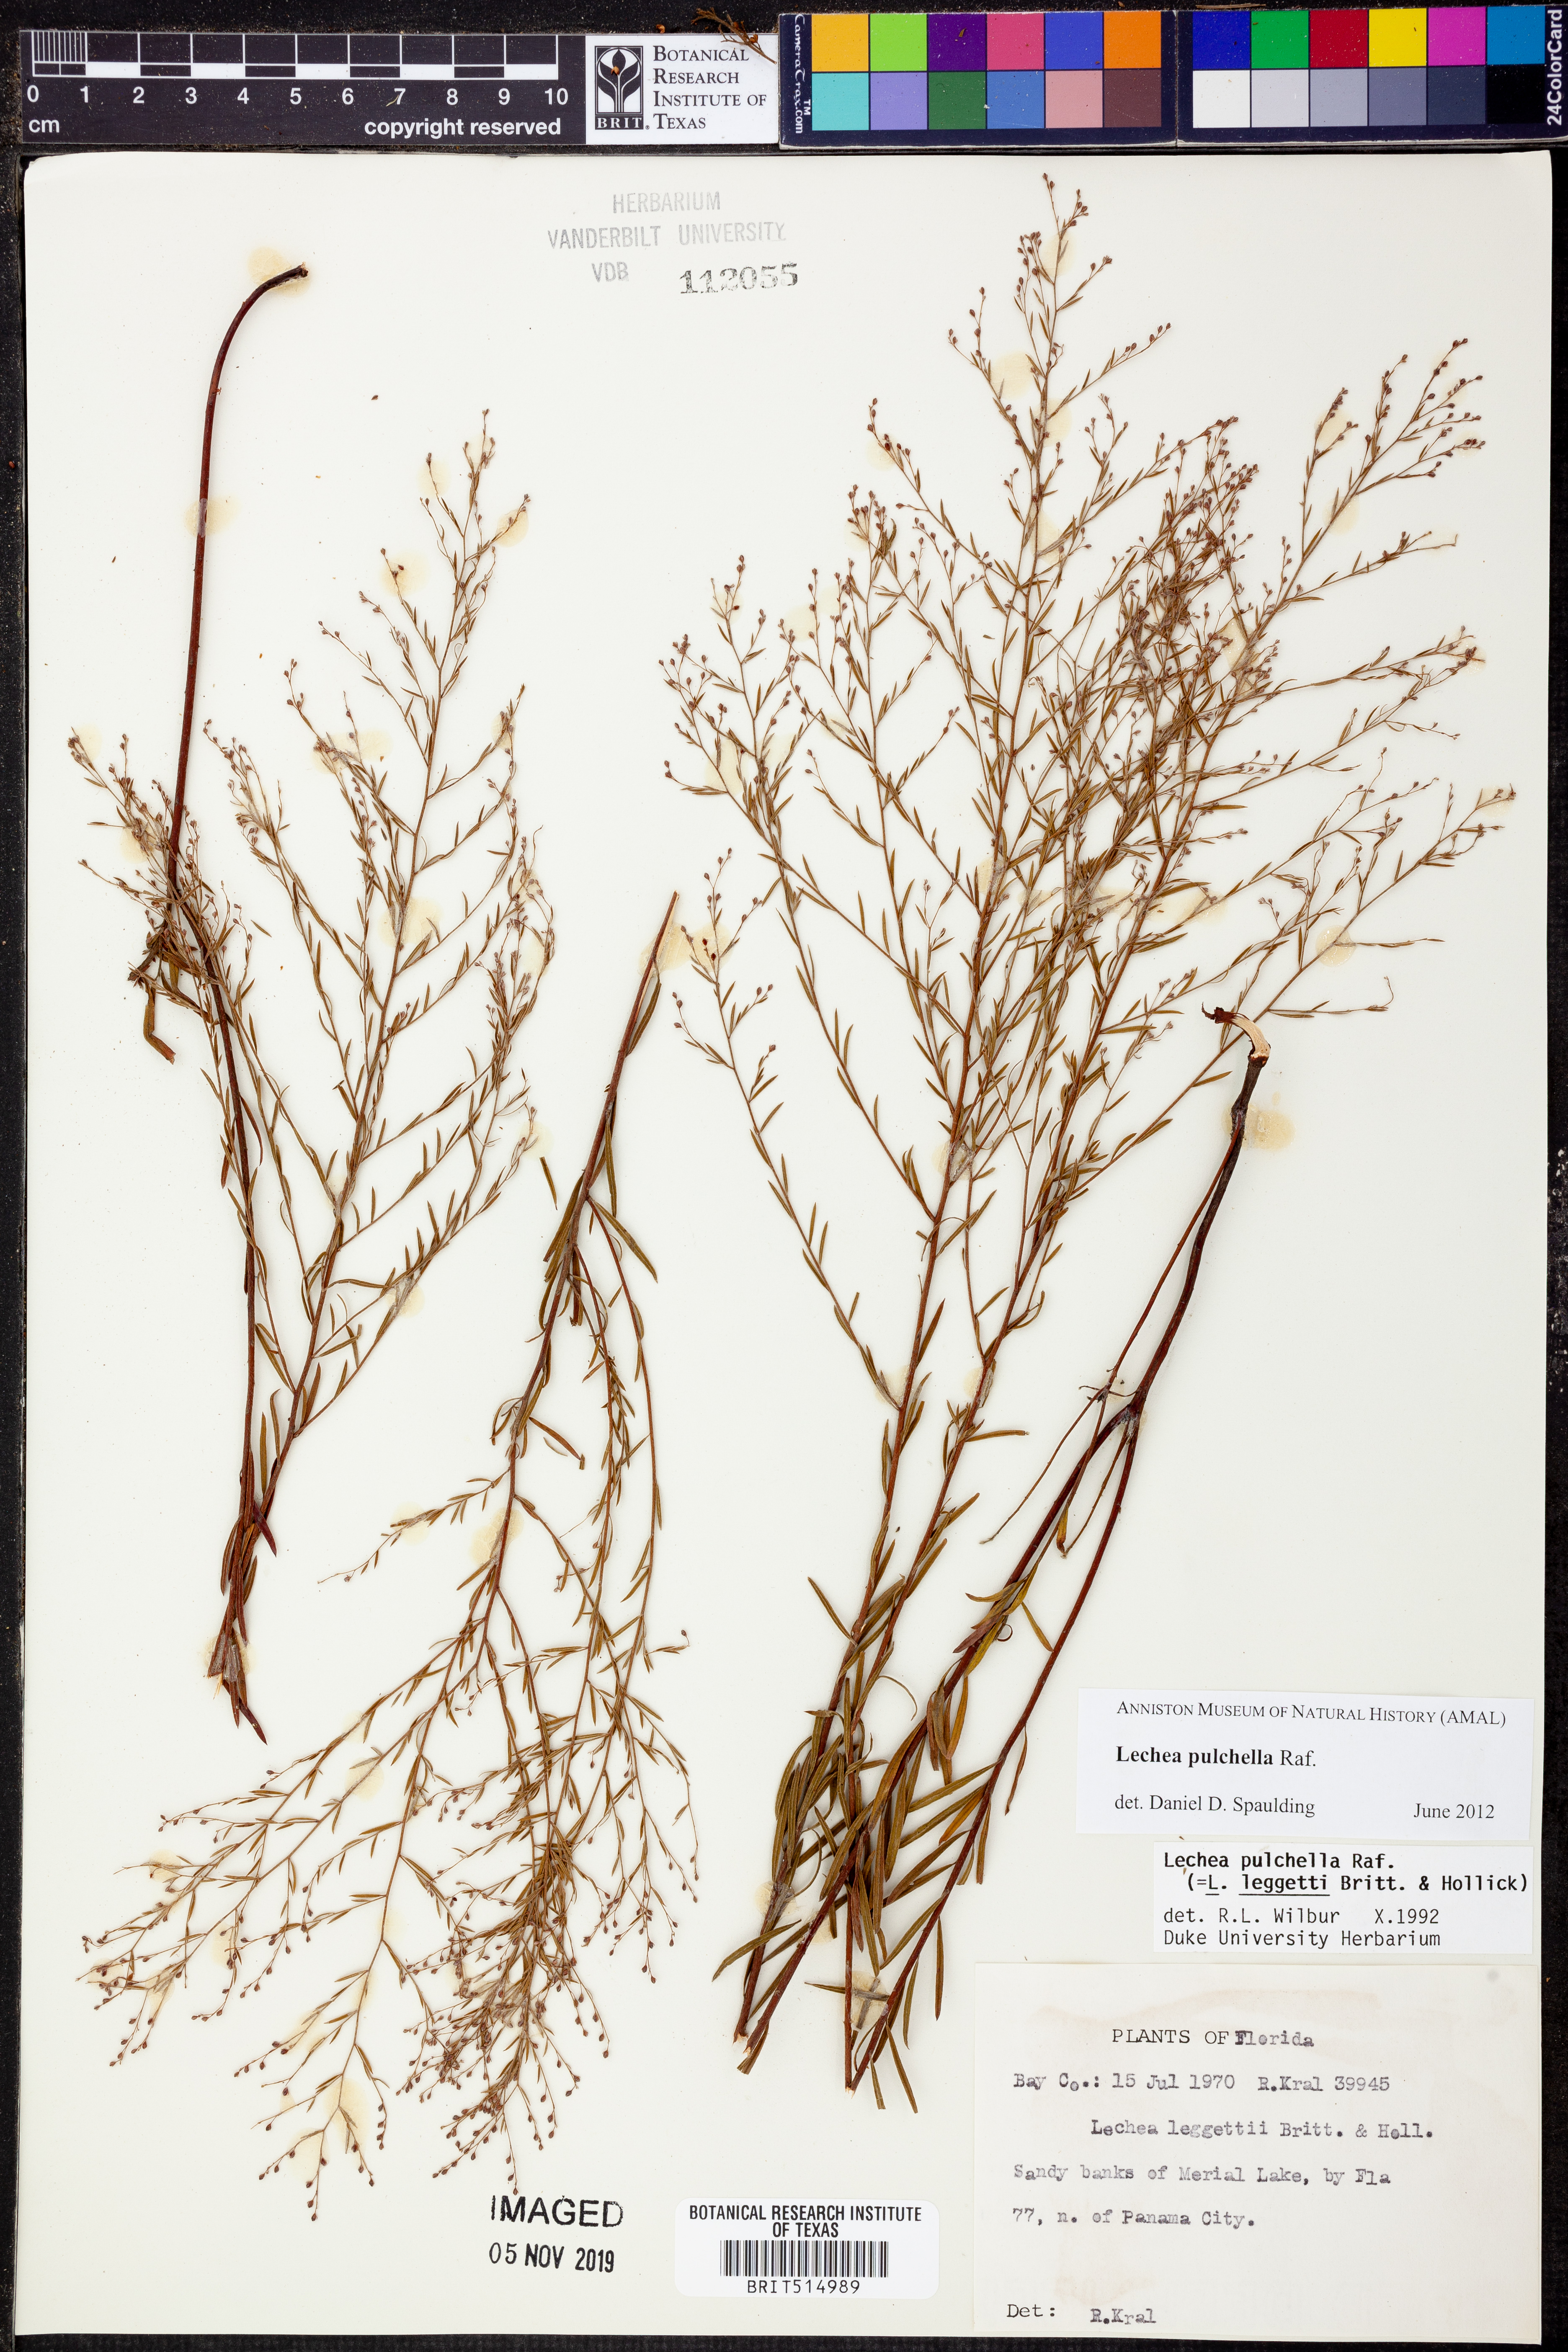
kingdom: Plantae
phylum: Tracheophyta
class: Magnoliopsida
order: Malvales
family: Cistaceae
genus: Lechea
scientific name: Lechea pulchella
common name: Leggett's pinweed
